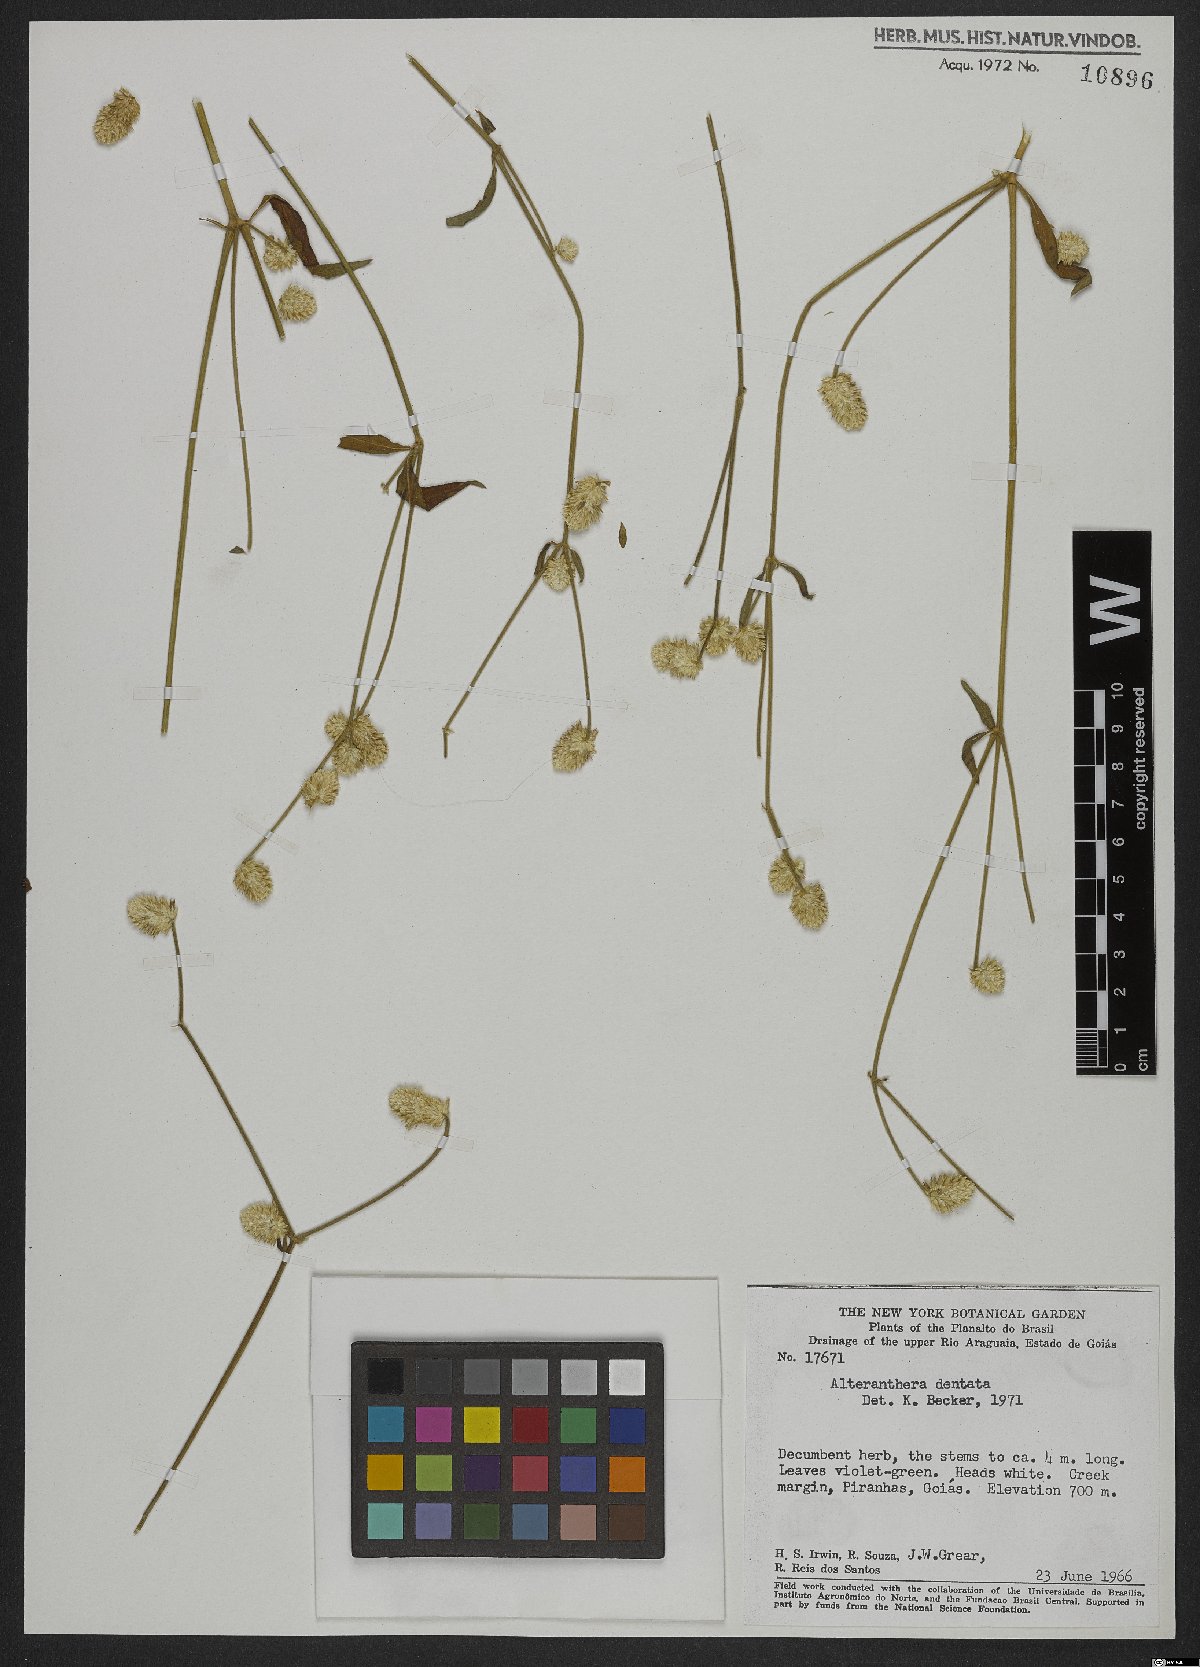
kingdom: Plantae
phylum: Tracheophyta
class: Magnoliopsida
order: Caryophyllales
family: Amaranthaceae
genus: Alternanthera
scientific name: Alternanthera ramosissima
